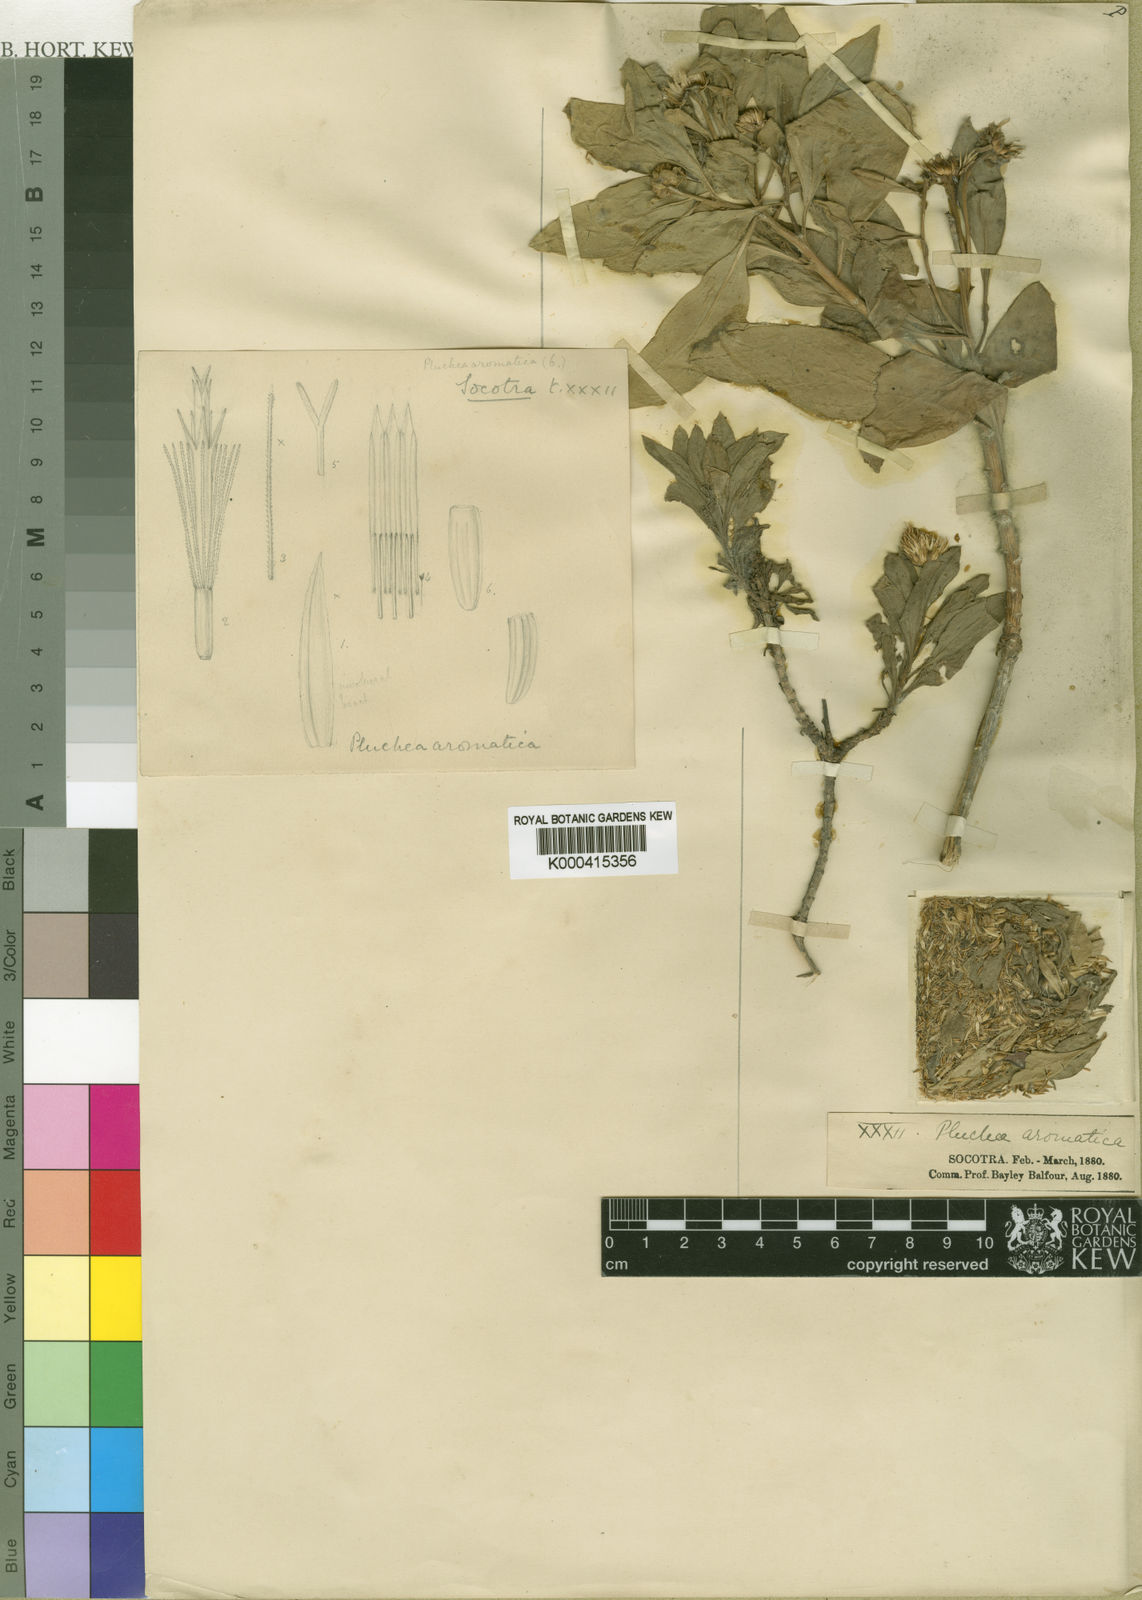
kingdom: Plantae
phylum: Tracheophyta
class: Magnoliopsida
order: Asterales
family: Asteraceae
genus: Pulicaria
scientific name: Pulicaria aromatica
